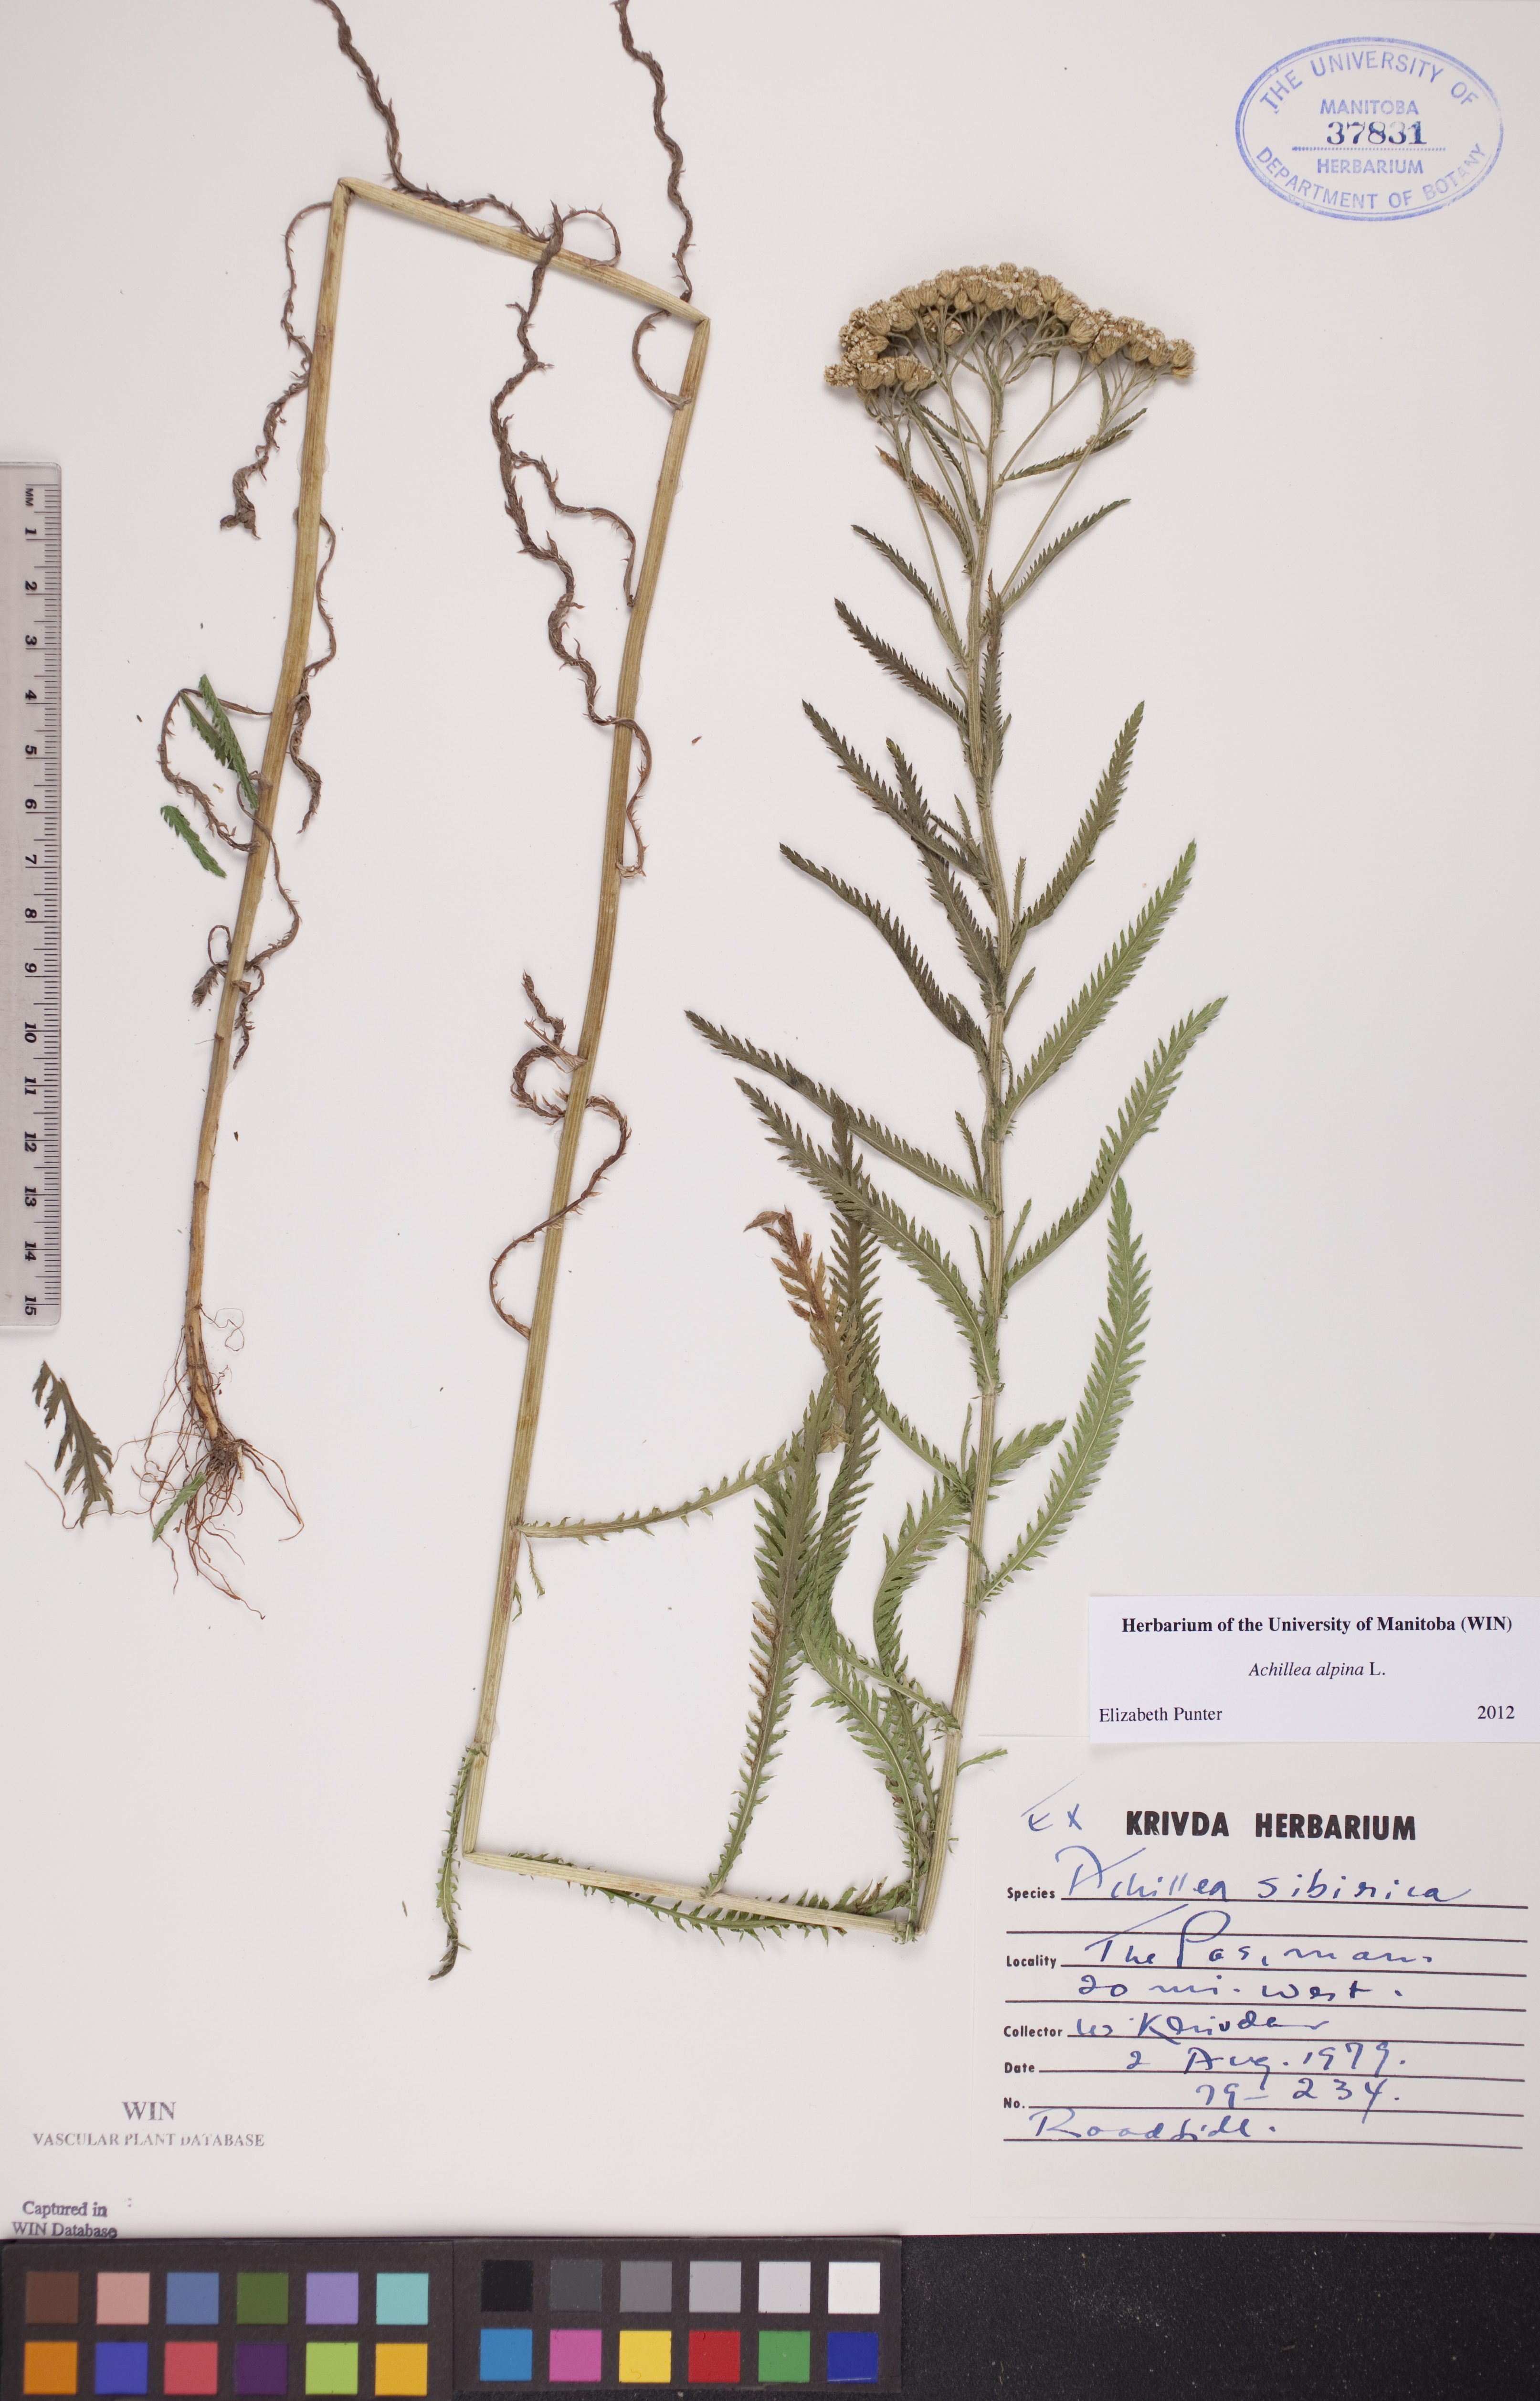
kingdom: Plantae
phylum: Tracheophyta
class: Magnoliopsida
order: Asterales
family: Asteraceae
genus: Achillea
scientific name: Achillea alpina
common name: Siberian yarrow
